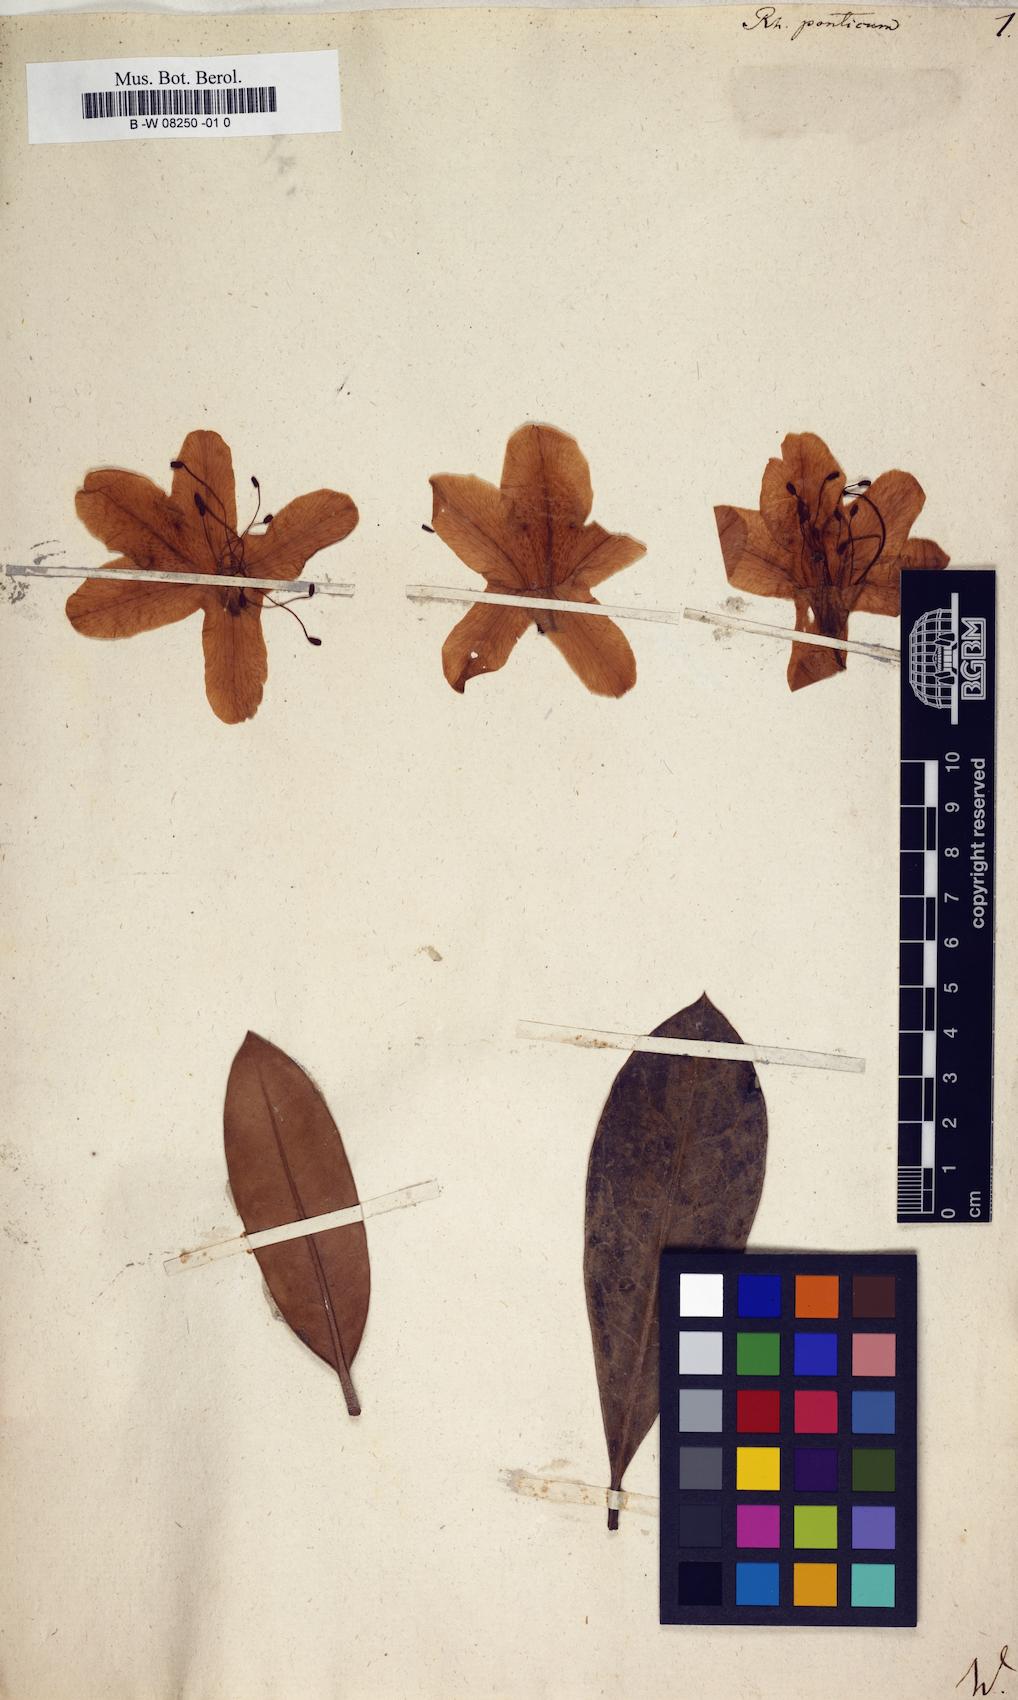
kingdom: Plantae
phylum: Tracheophyta
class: Magnoliopsida
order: Ericales
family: Ericaceae
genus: Rhododendron
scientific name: Rhododendron ponticum
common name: Rhododendron
